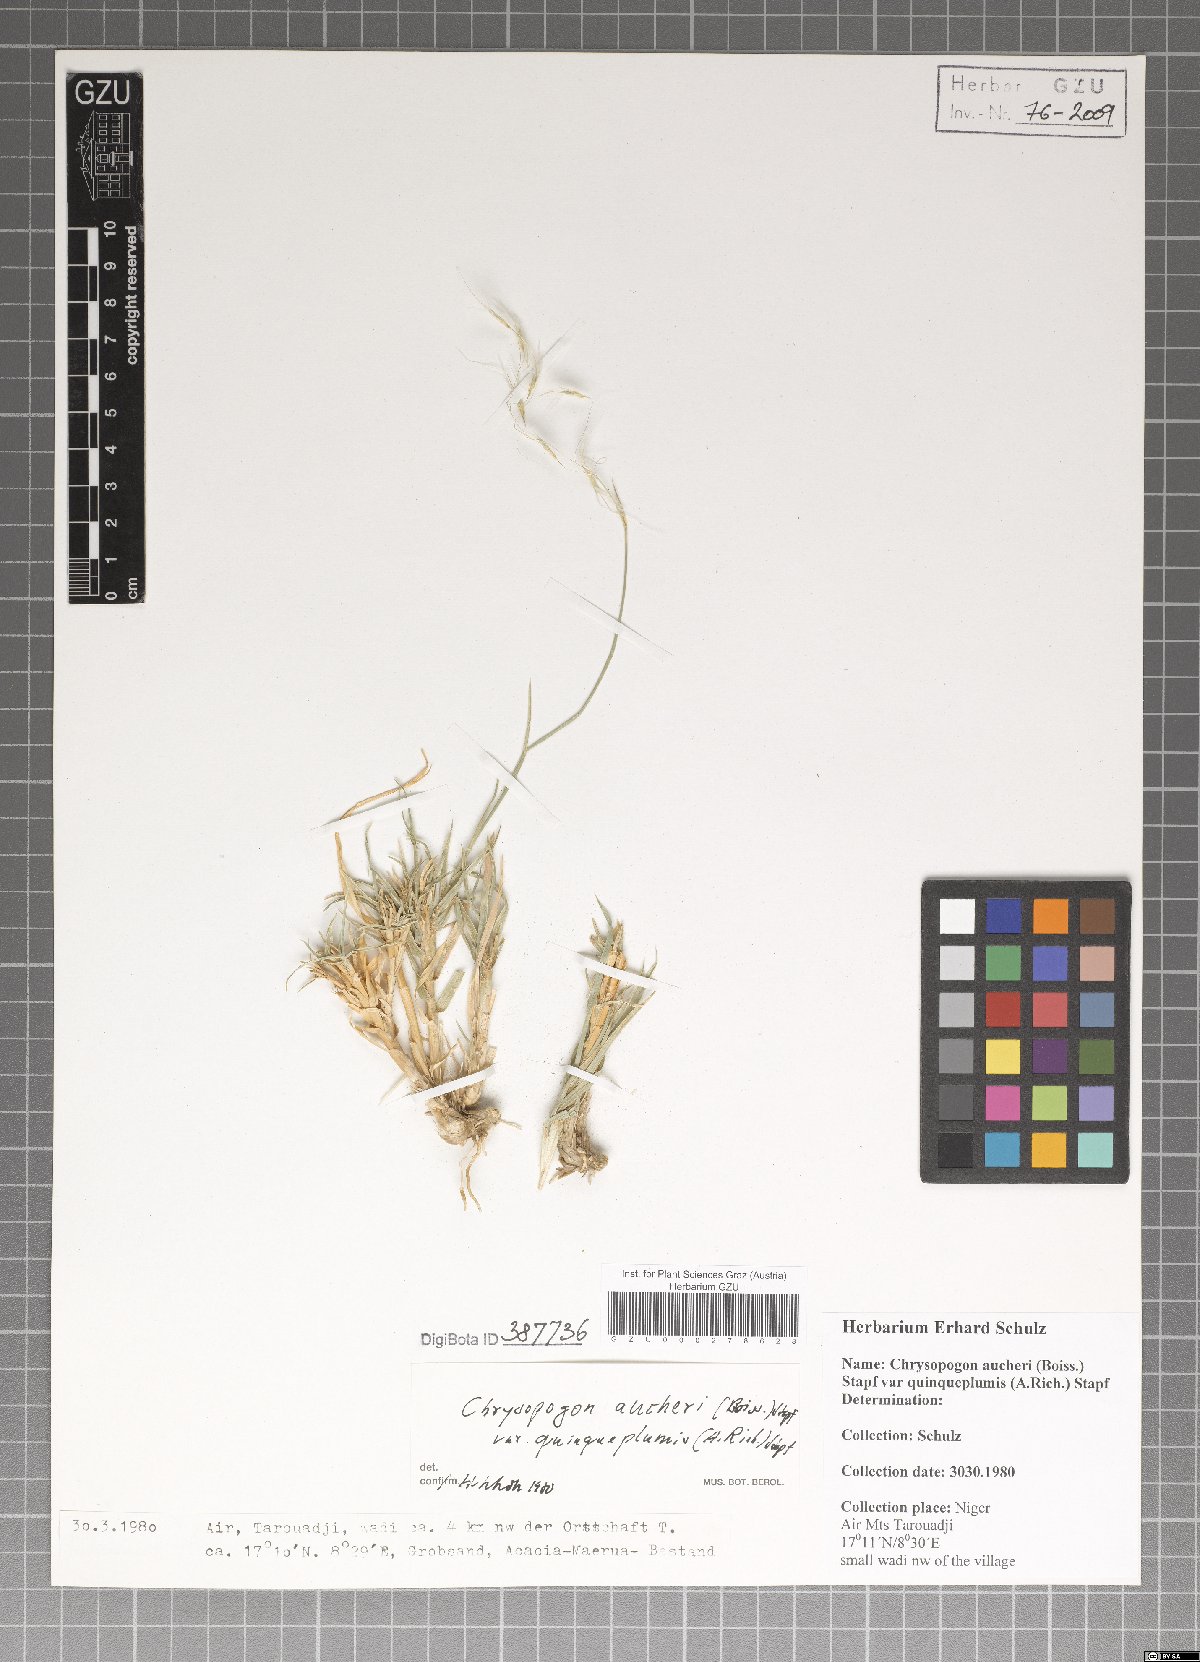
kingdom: Plantae
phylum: Tracheophyta
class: Liliopsida
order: Poales
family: Poaceae
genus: Chrysopogon
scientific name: Chrysopogon plumulosus
